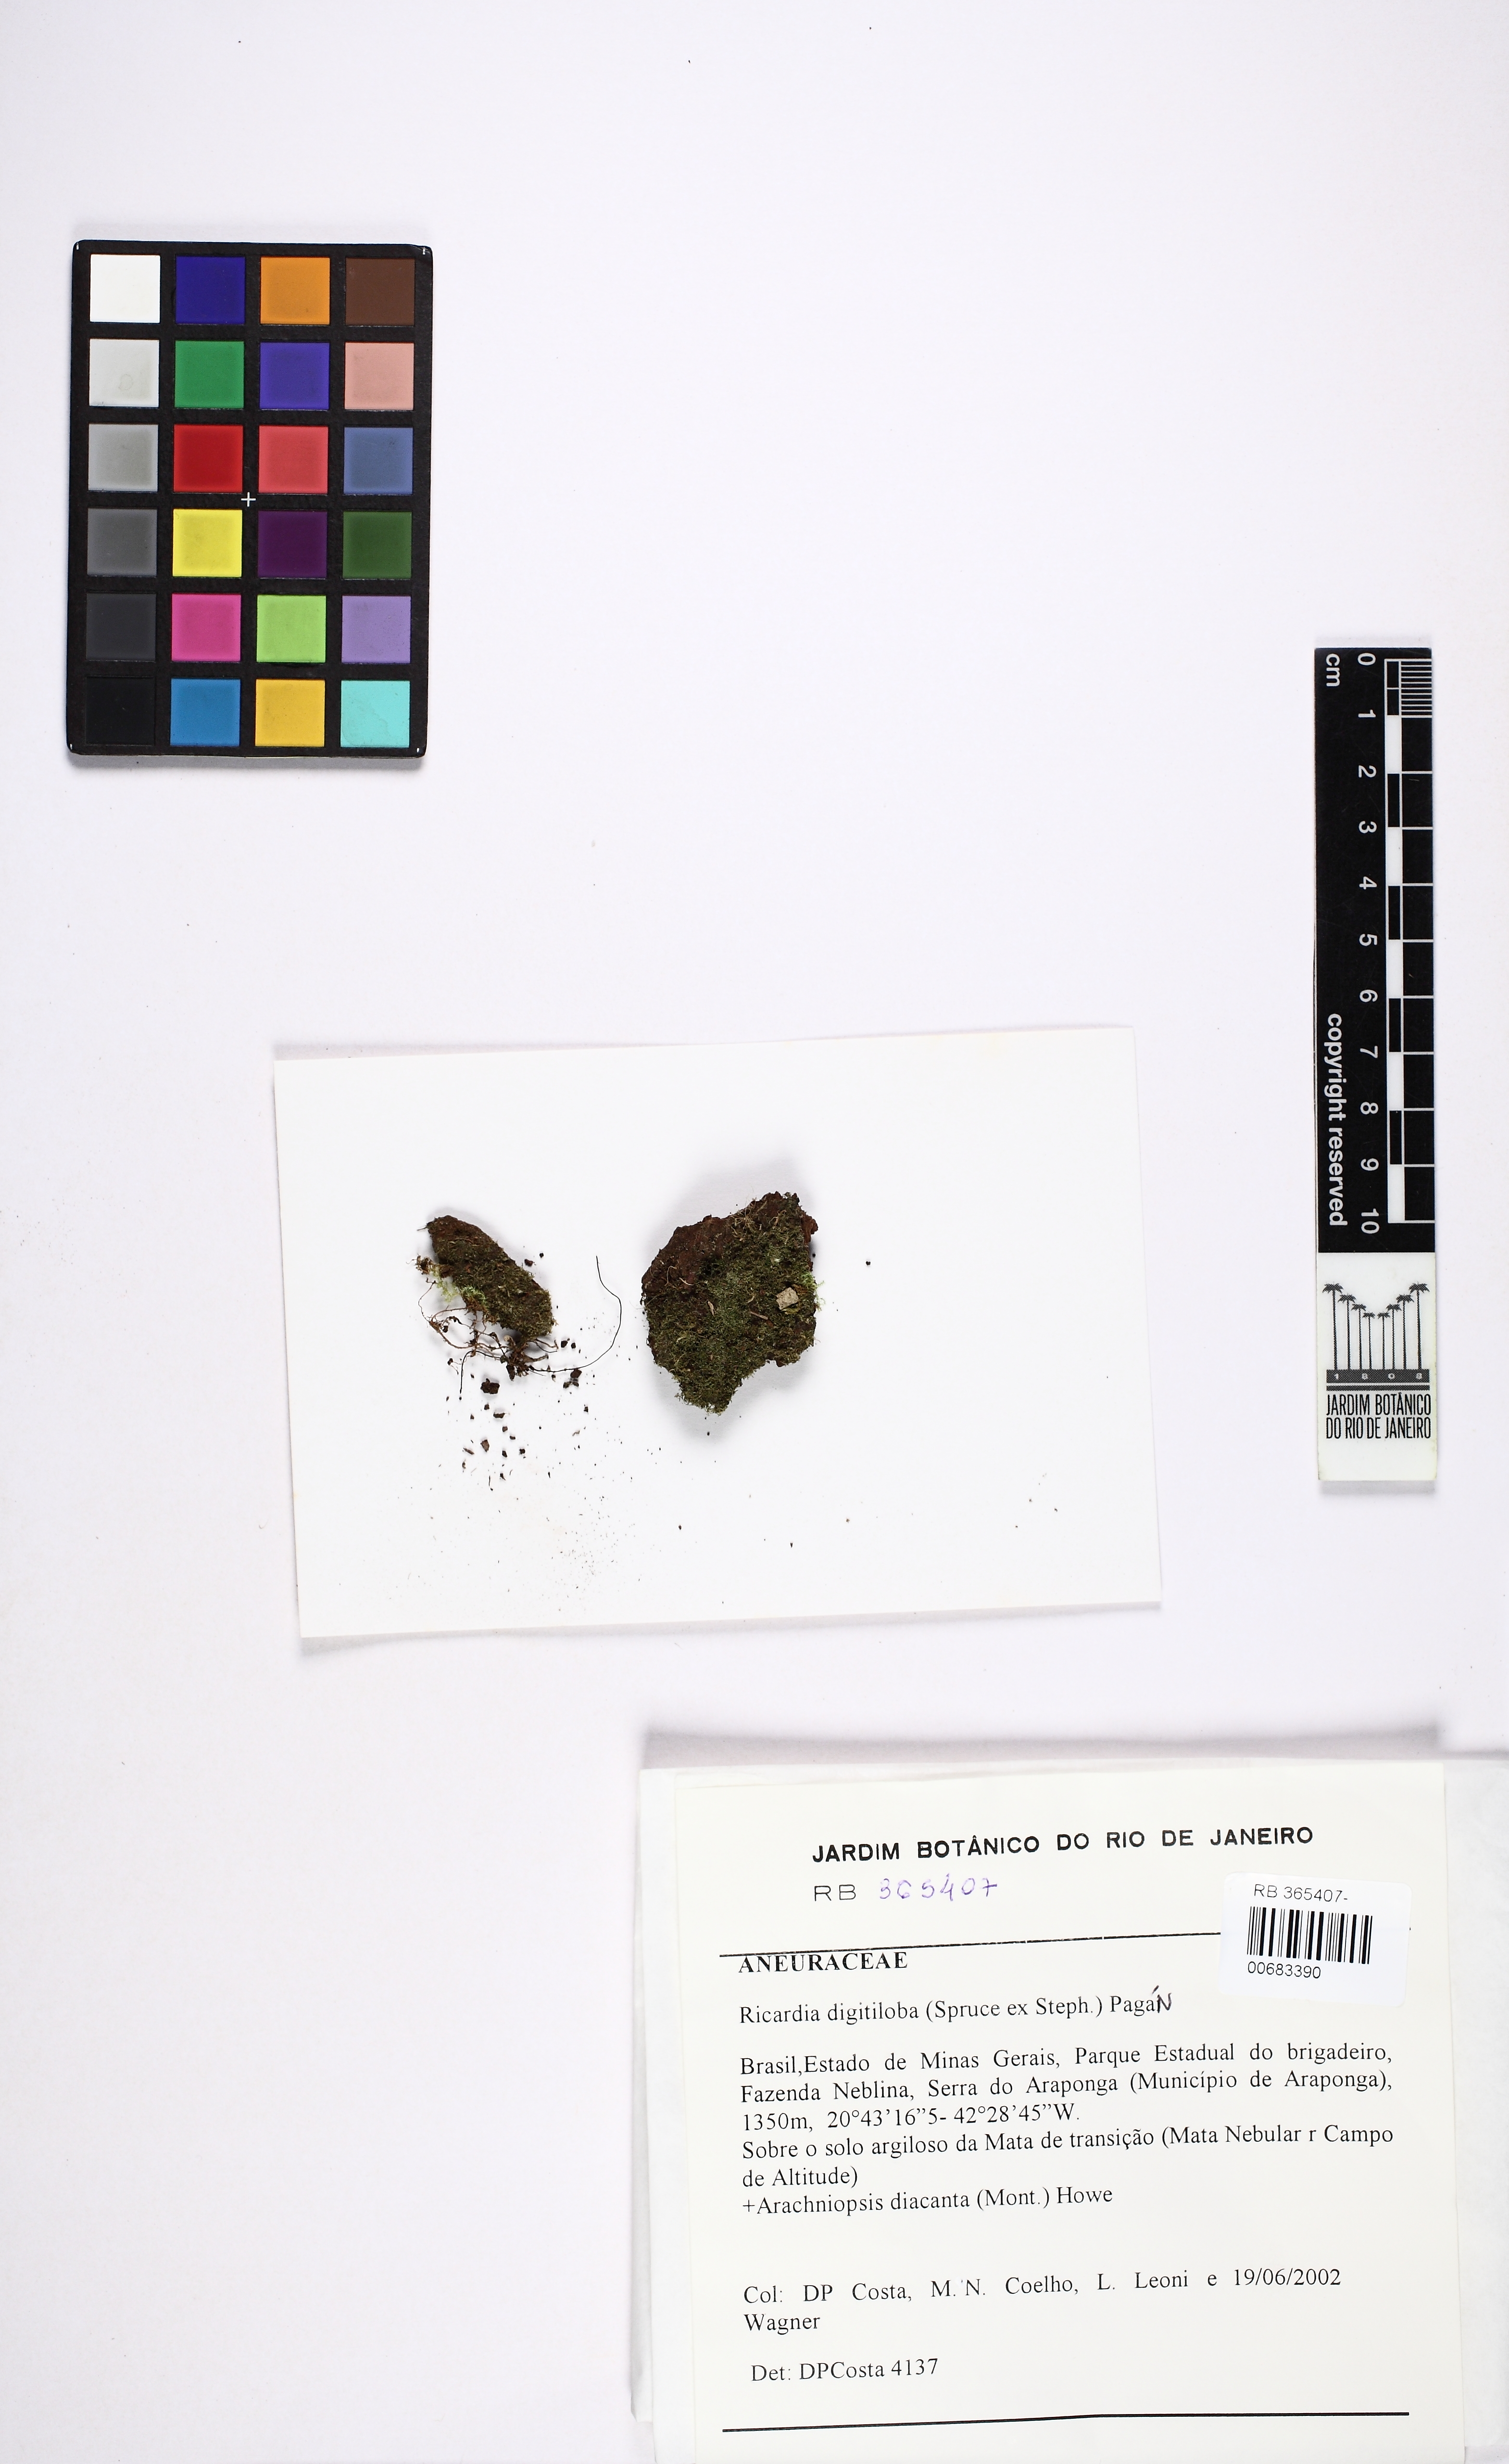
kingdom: Plantae
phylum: Marchantiophyta
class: Jungermanniopsida
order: Metzgeriales
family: Aneuraceae
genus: Riccardia
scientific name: Riccardia digitiloba
